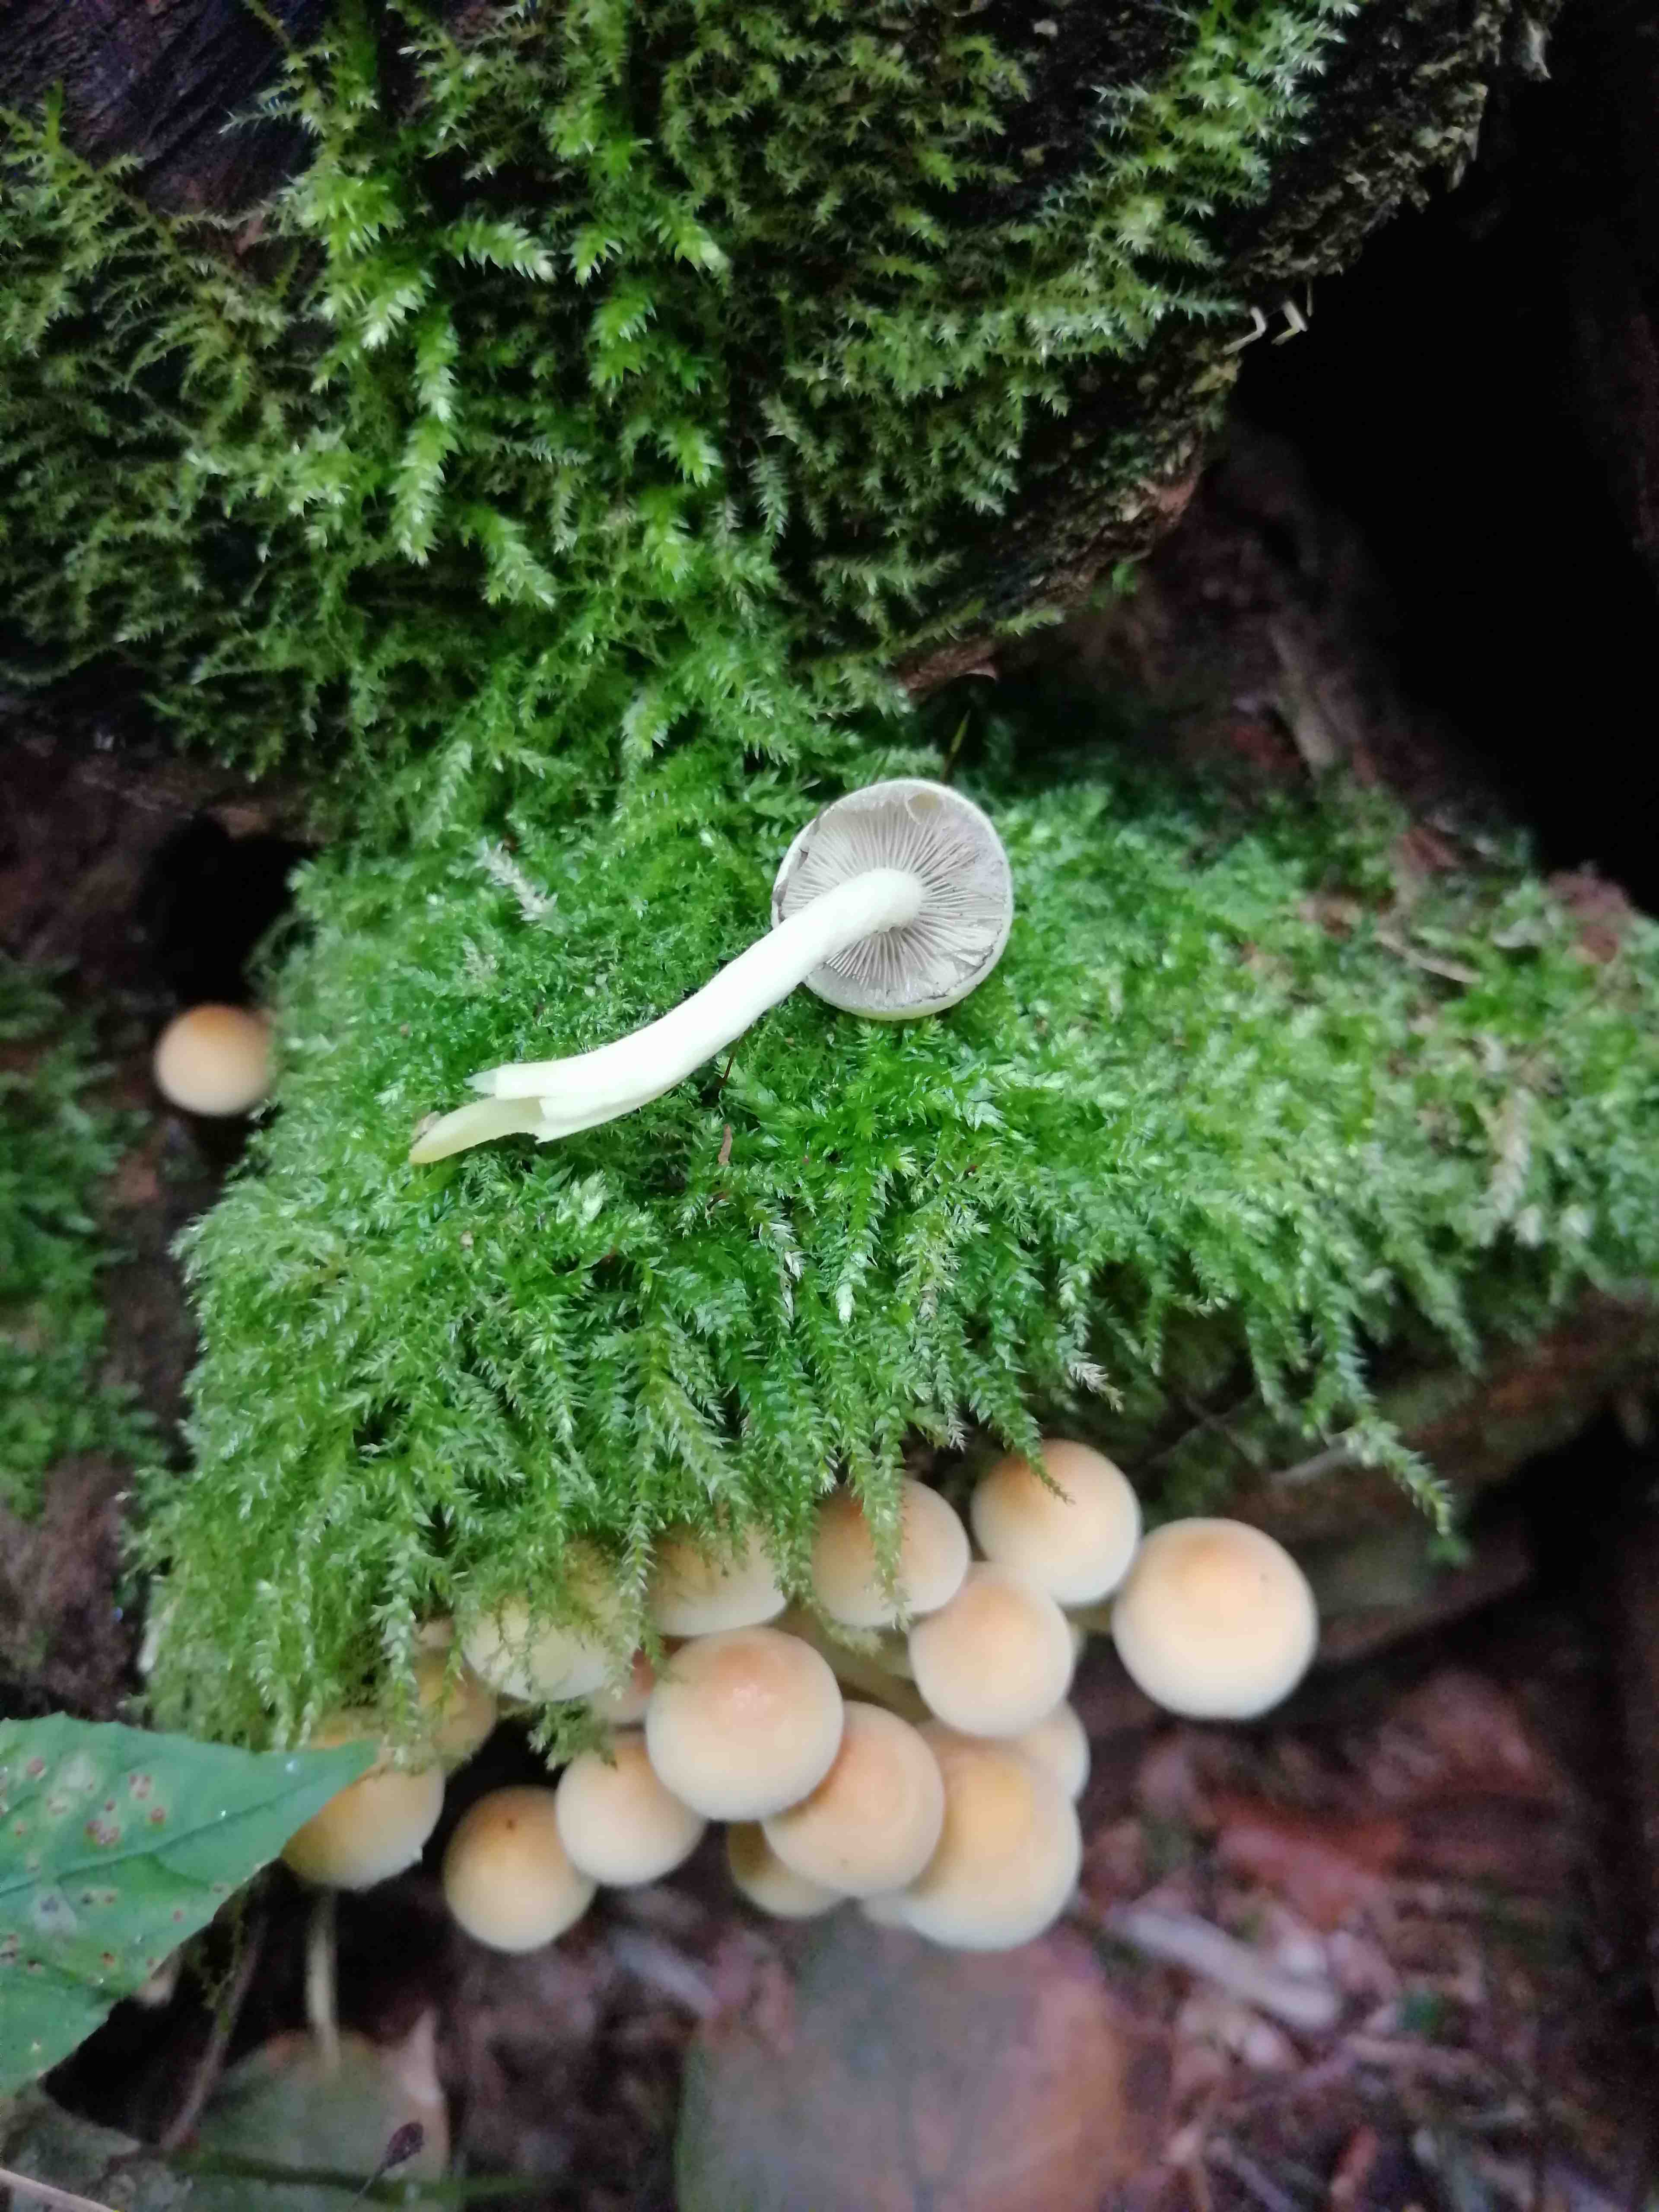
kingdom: Fungi
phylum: Basidiomycota
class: Agaricomycetes
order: Agaricales
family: Psathyrellaceae
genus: Psathyrella
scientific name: Psathyrella piluliformis
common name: lysstokket mørkhat
